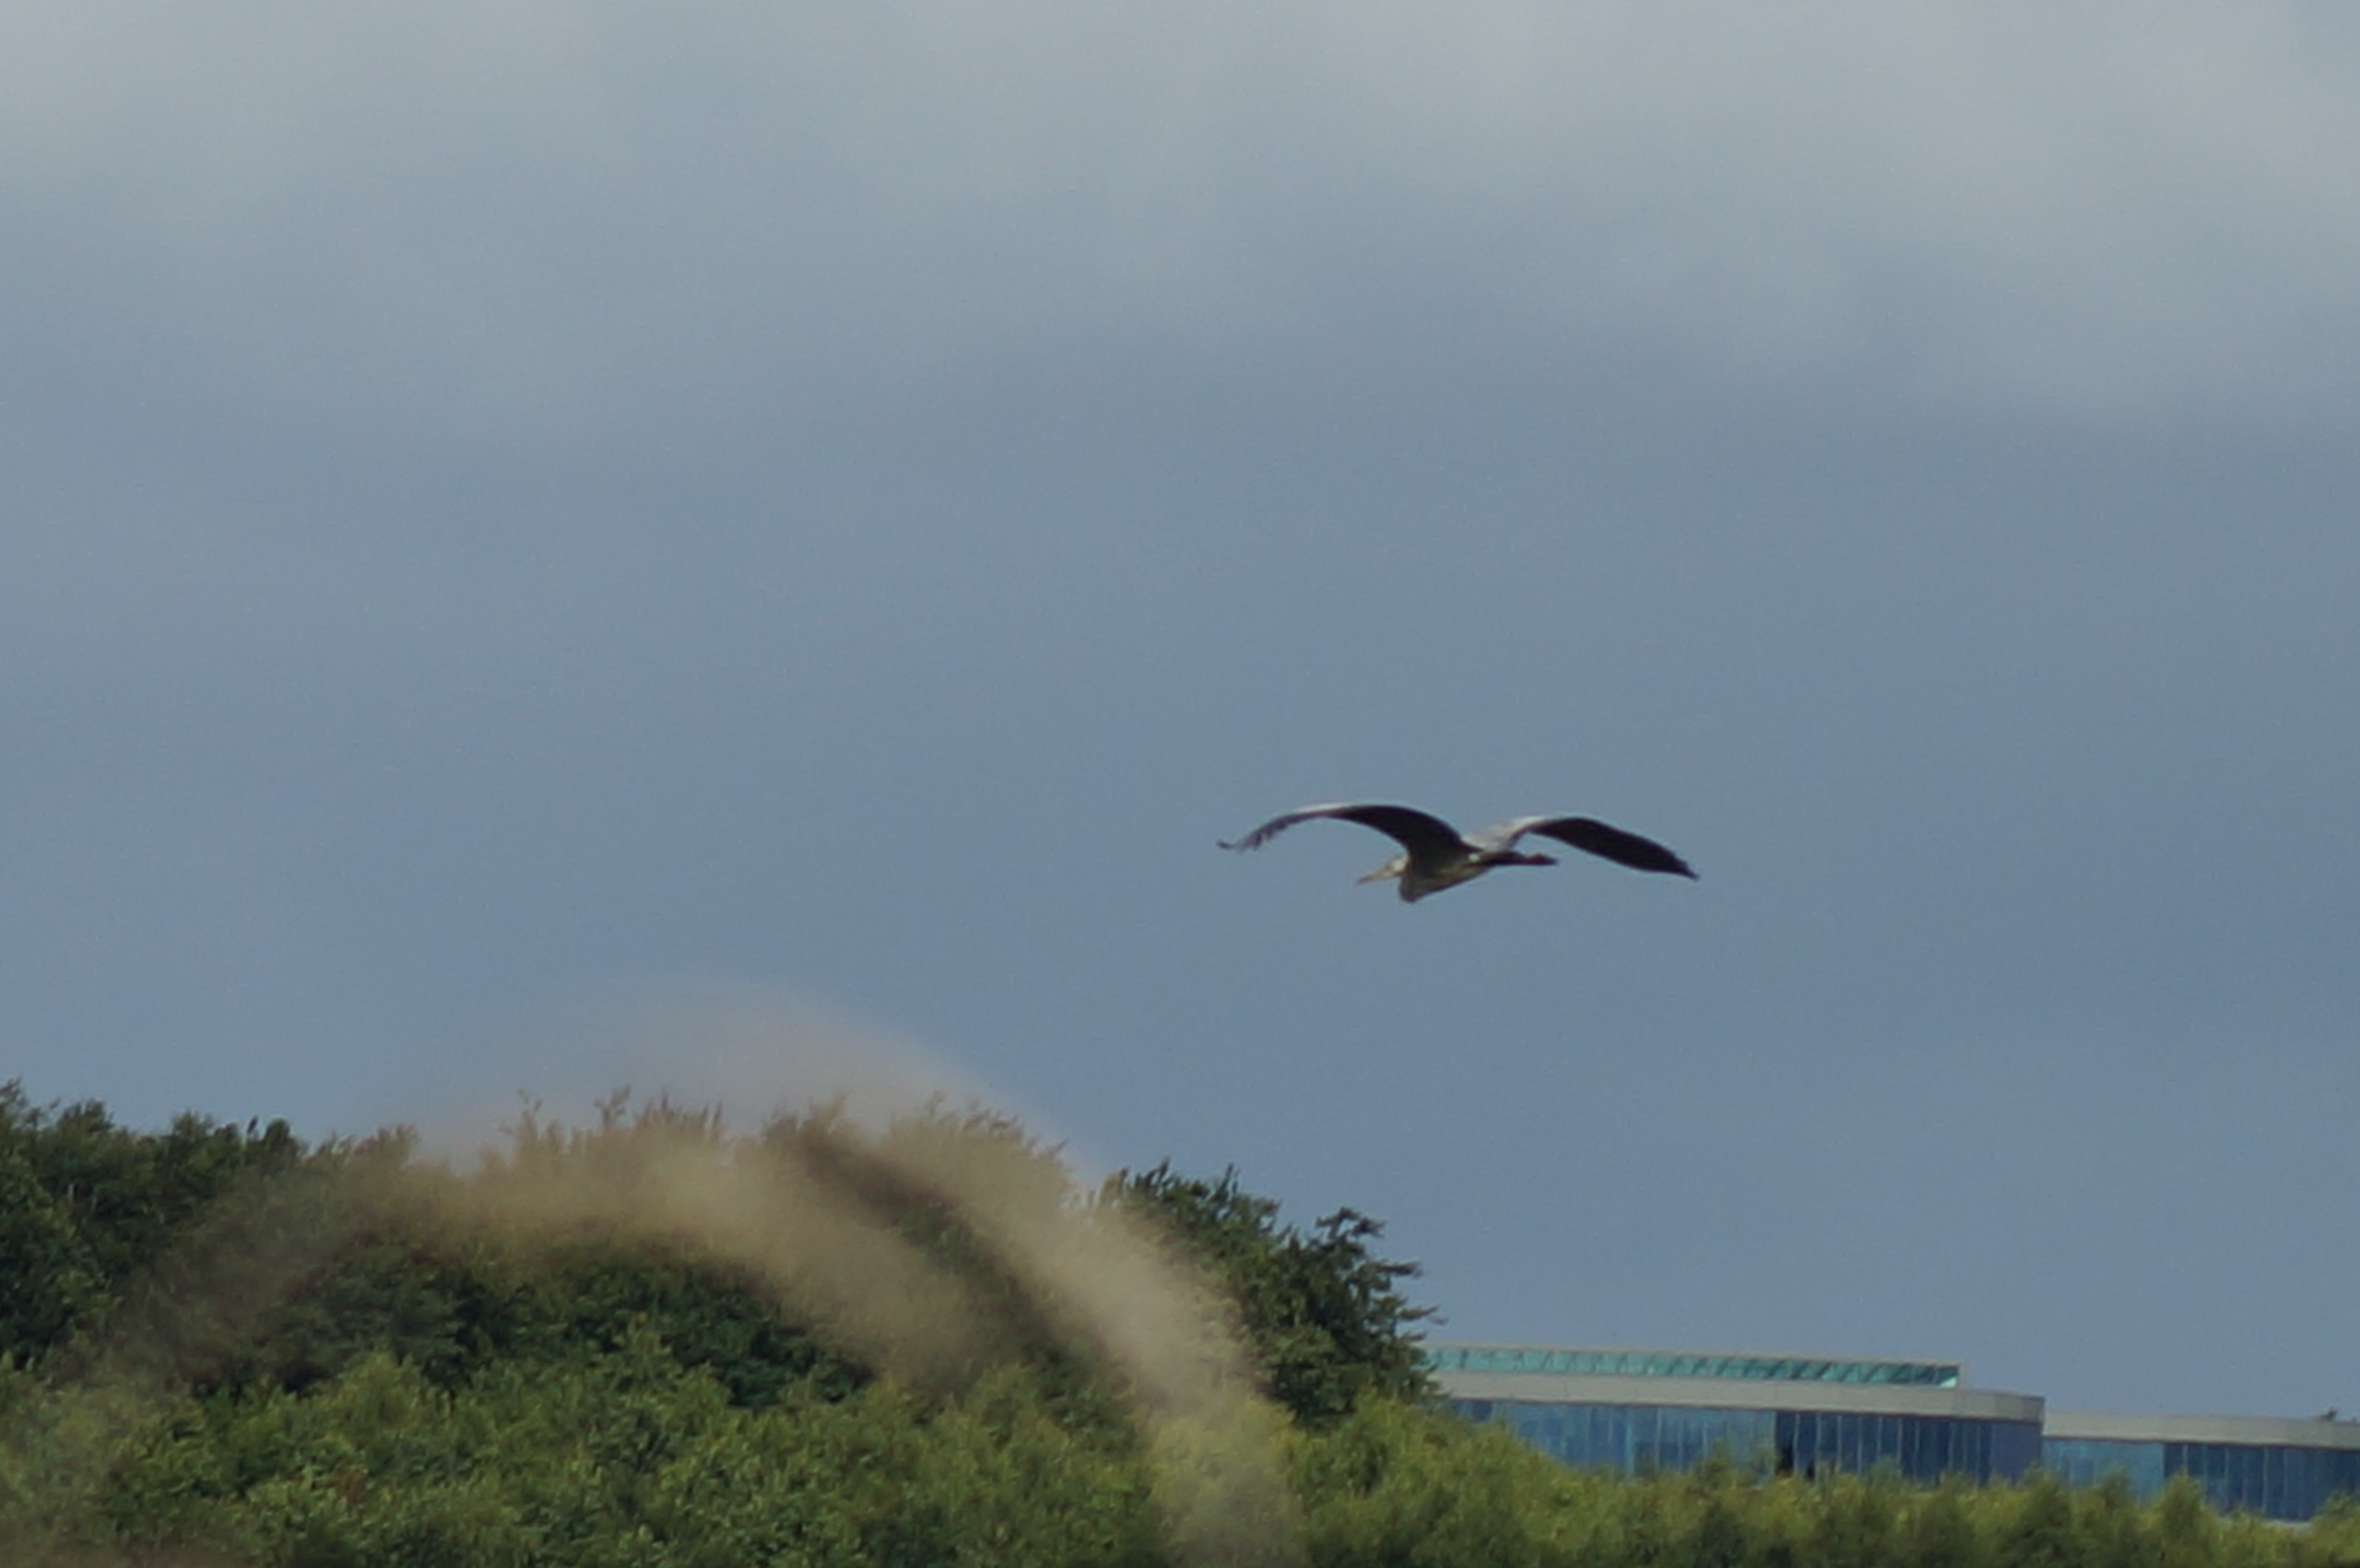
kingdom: Animalia
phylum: Chordata
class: Aves
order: Pelecaniformes
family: Ardeidae
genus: Ardea
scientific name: Ardea cinerea
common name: Fiskehejre
